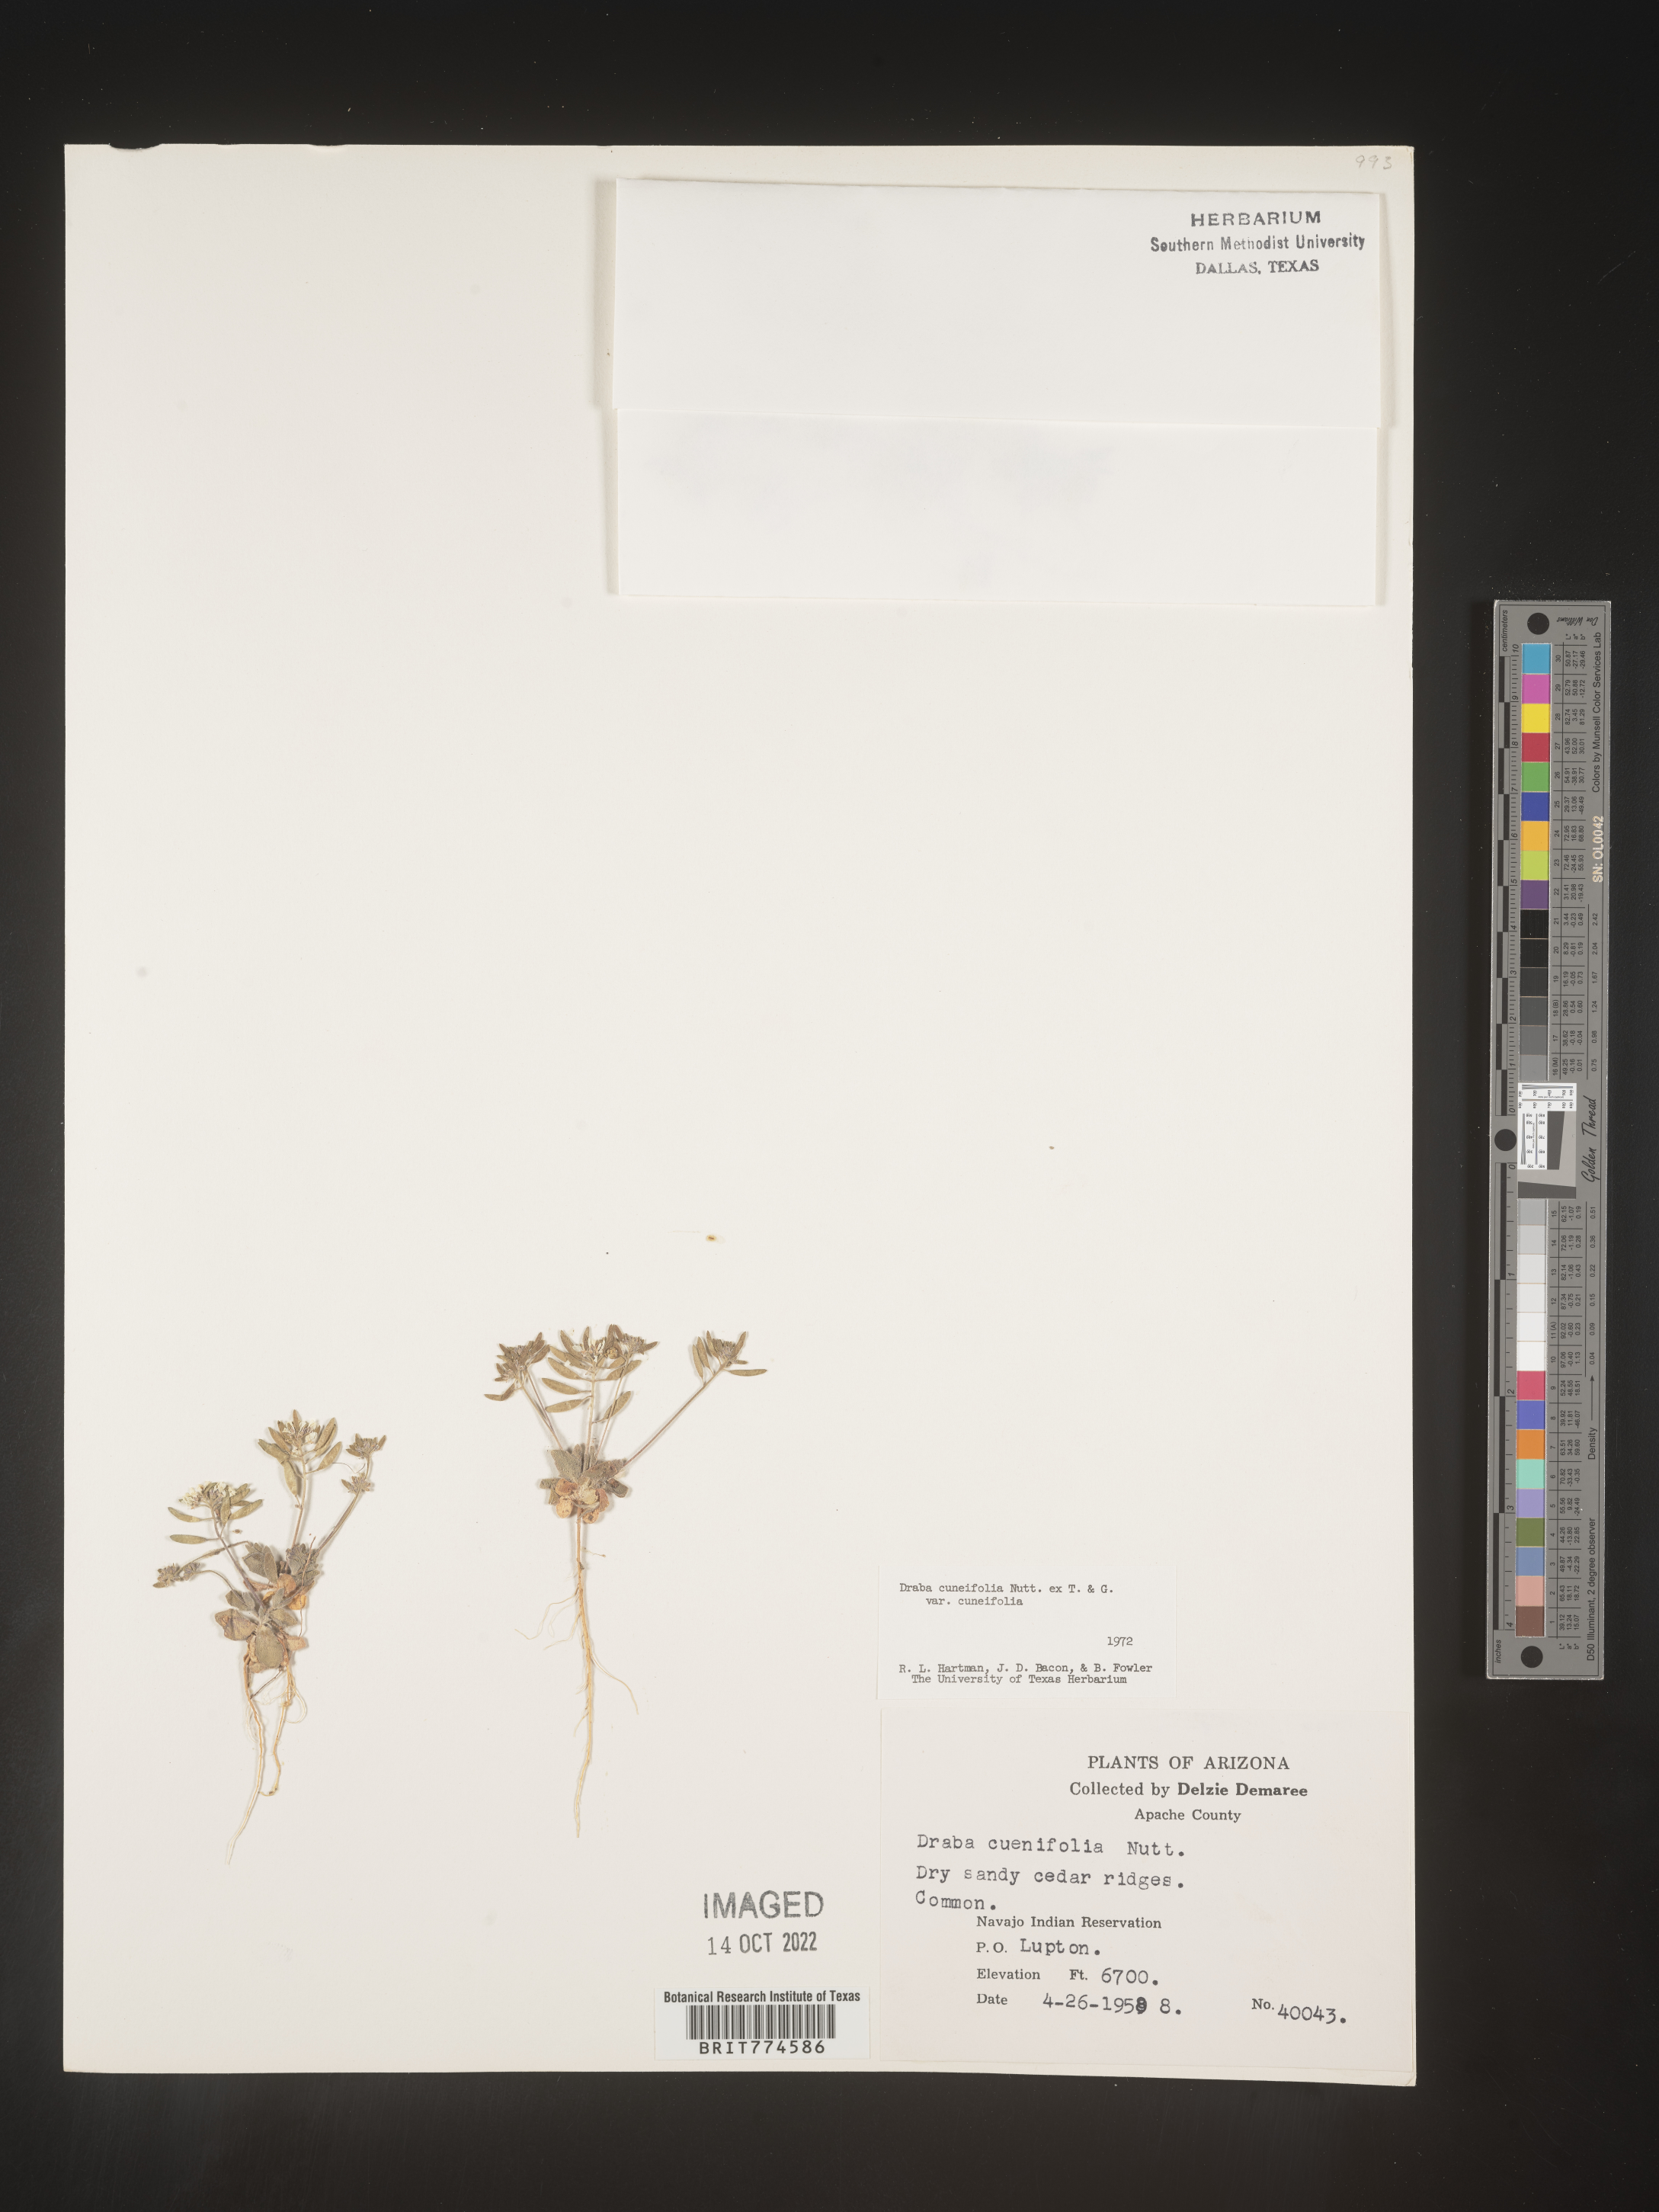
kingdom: Plantae
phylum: Tracheophyta
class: Magnoliopsida
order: Brassicales
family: Brassicaceae
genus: Tomostima
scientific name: Tomostima cuneifolia
